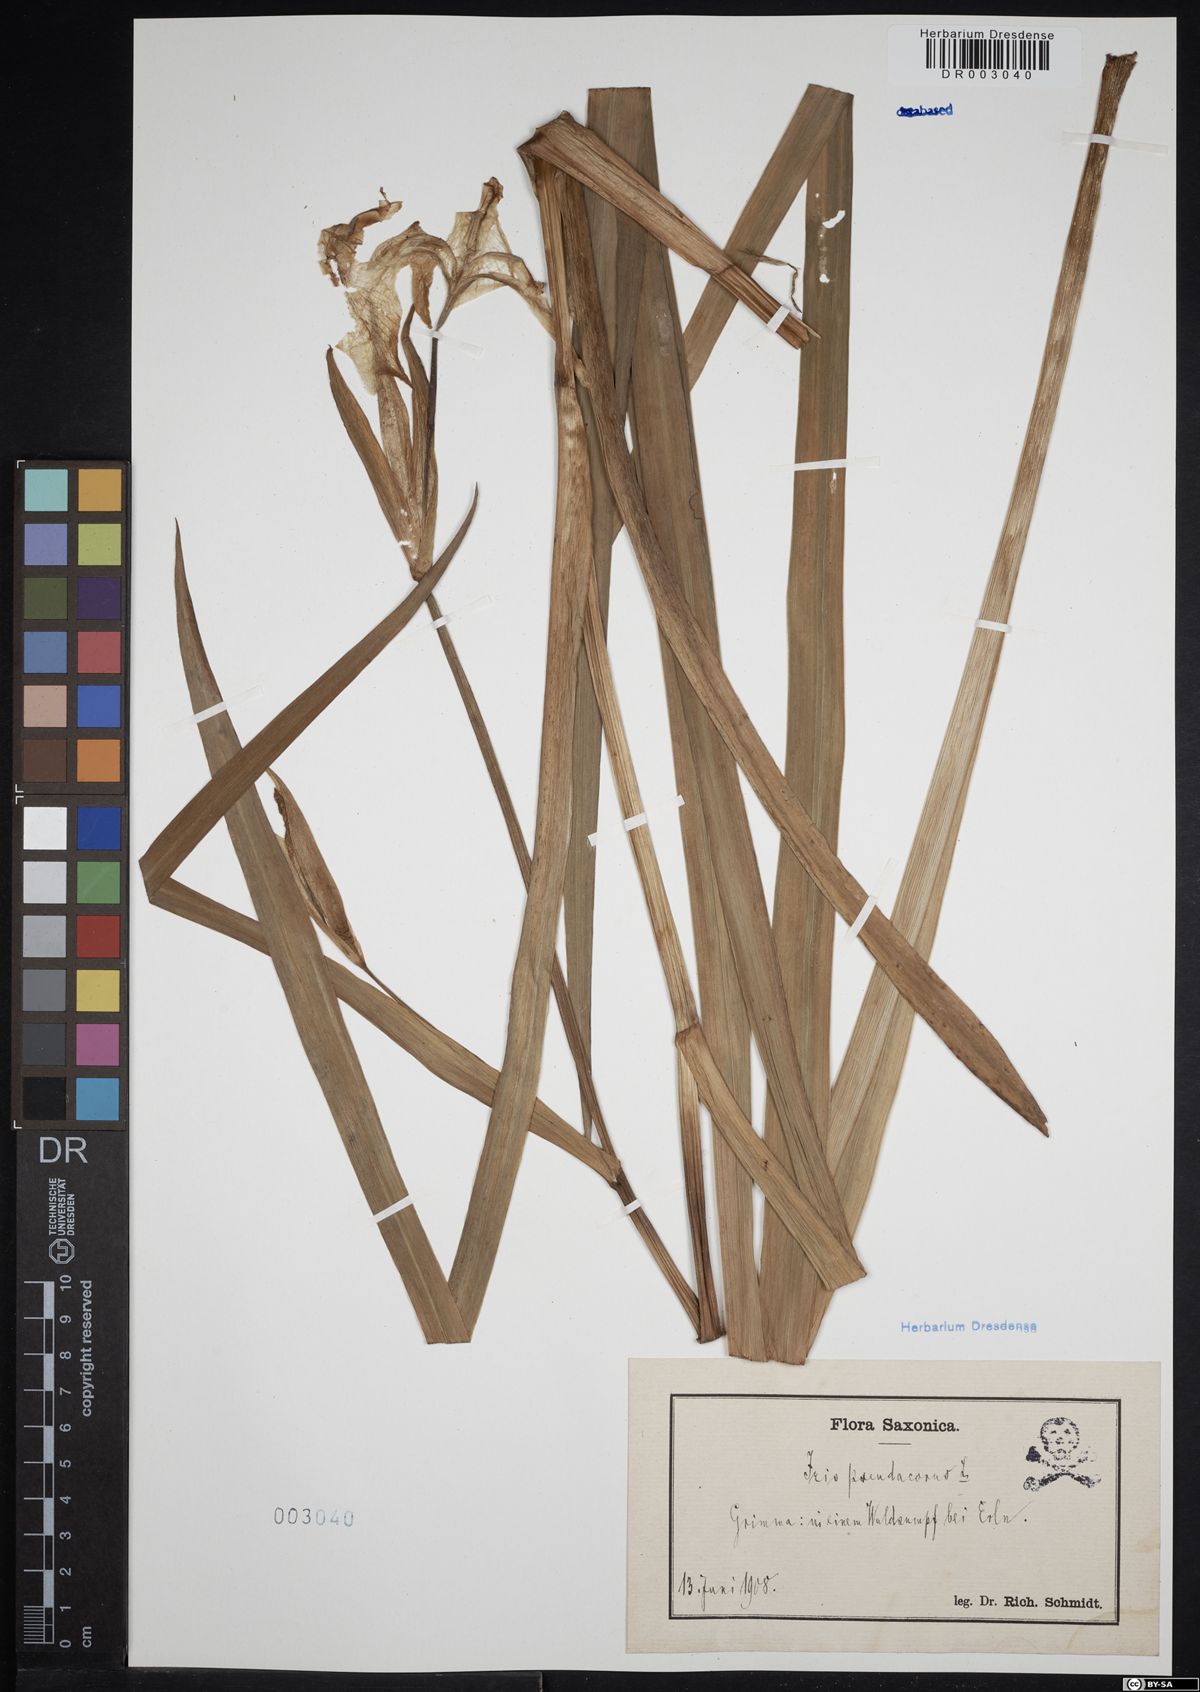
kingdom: Plantae
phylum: Tracheophyta
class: Liliopsida
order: Asparagales
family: Iridaceae
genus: Iris
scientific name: Iris pseudacorus
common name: Yellow flag
